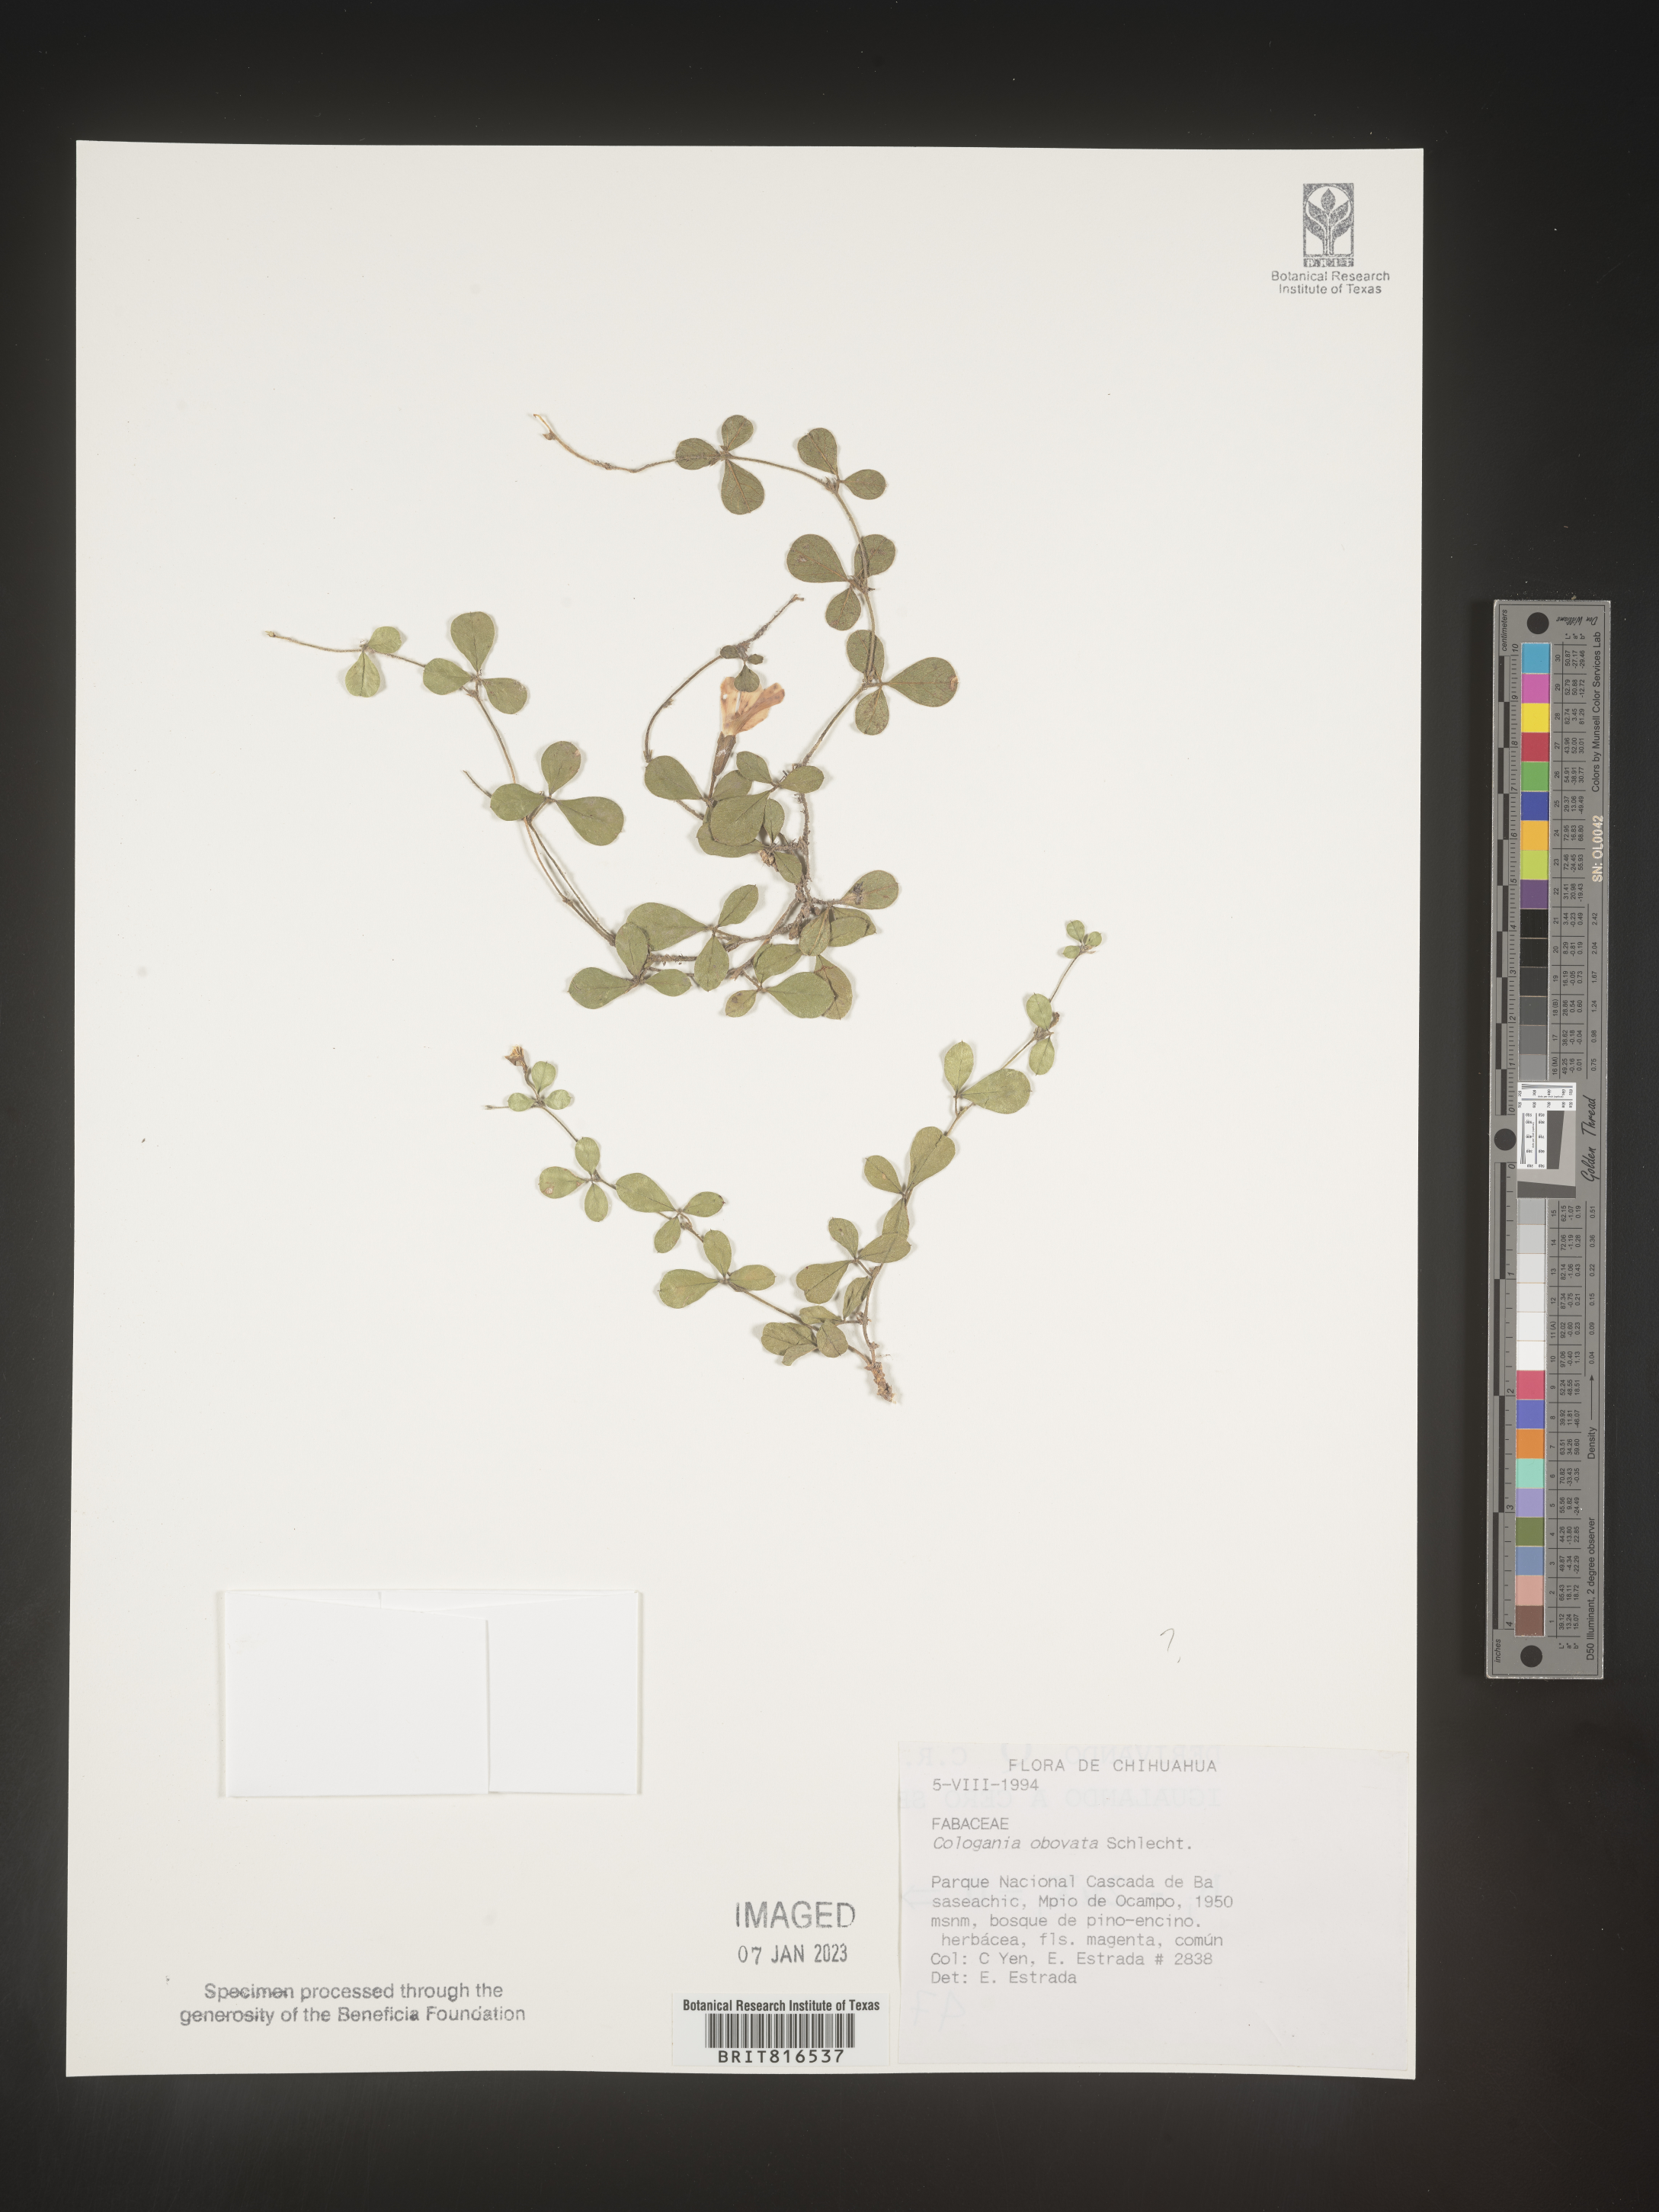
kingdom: Plantae
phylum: Tracheophyta
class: Magnoliopsida
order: Fabales
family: Fabaceae
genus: Cologania
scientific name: Cologania obovata
